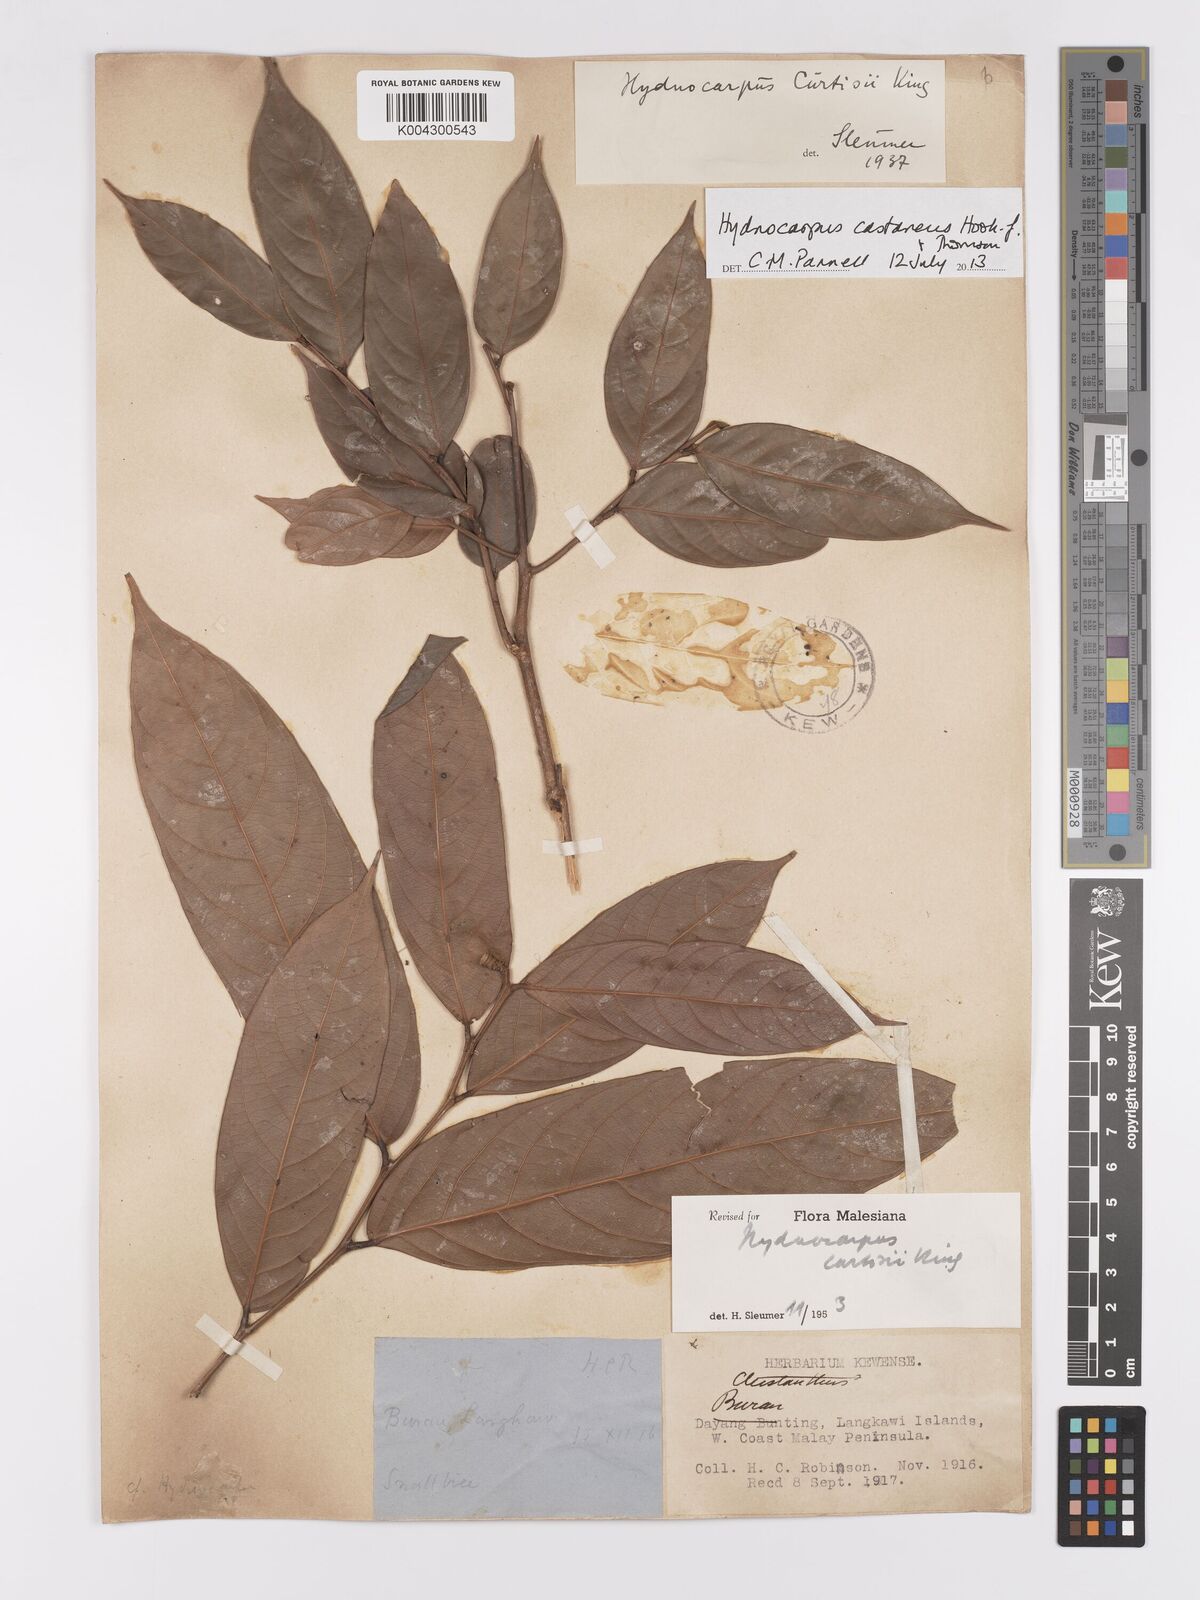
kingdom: Plantae
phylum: Tracheophyta
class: Magnoliopsida
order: Malpighiales
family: Achariaceae
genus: Hydnocarpus
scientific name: Hydnocarpus curtisii
